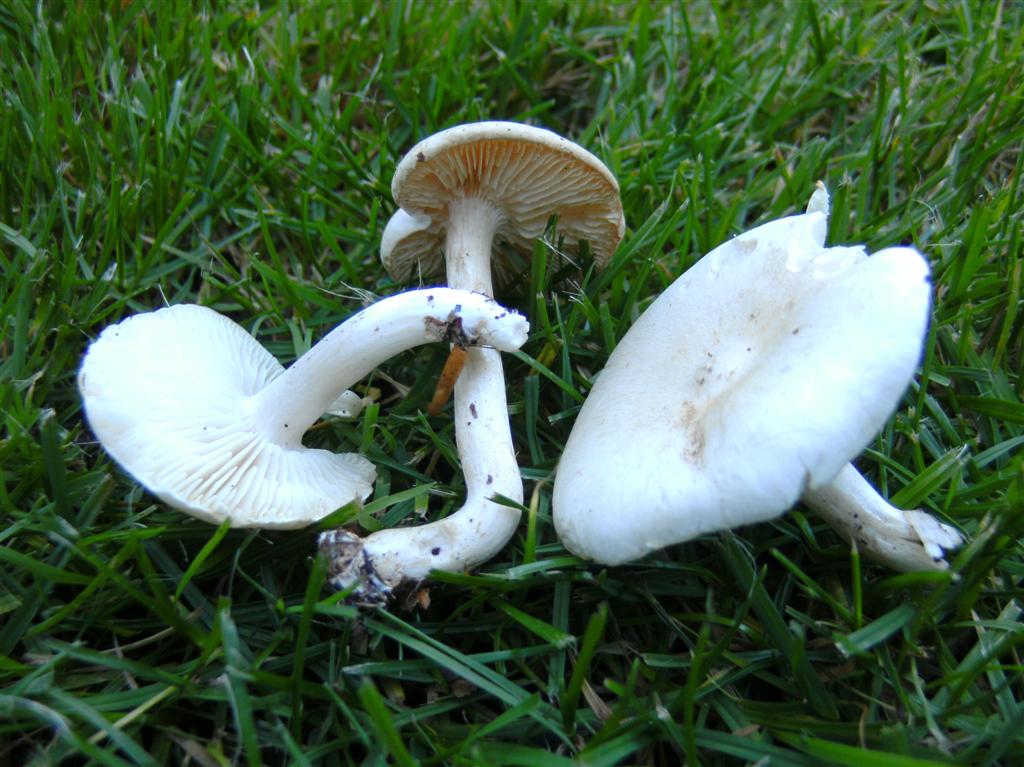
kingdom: Fungi
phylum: Basidiomycota
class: Agaricomycetes
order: Agaricales
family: Tricholomataceae
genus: Tricholoma
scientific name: Tricholoma album
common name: honning-ridderhat
